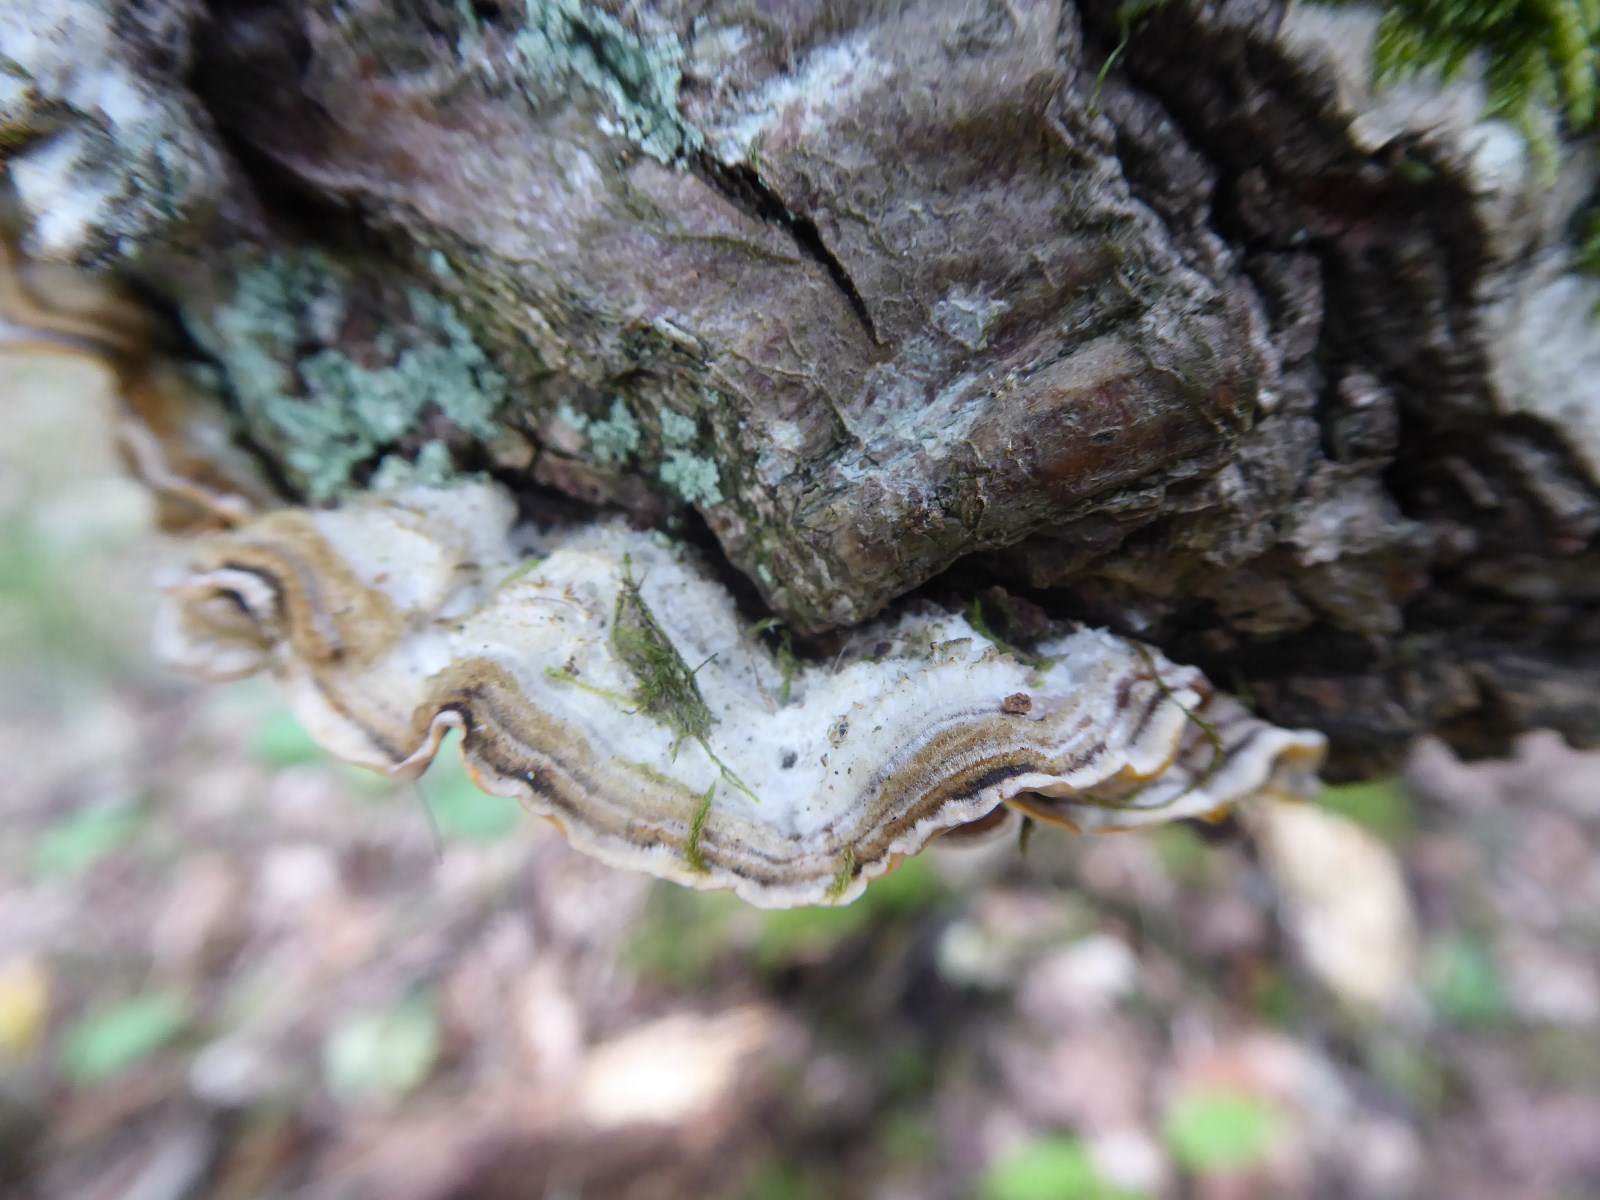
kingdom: Fungi
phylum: Basidiomycota
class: Agaricomycetes
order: Russulales
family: Stereaceae
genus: Stereum
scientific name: Stereum hirsutum
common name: håret lædersvamp
